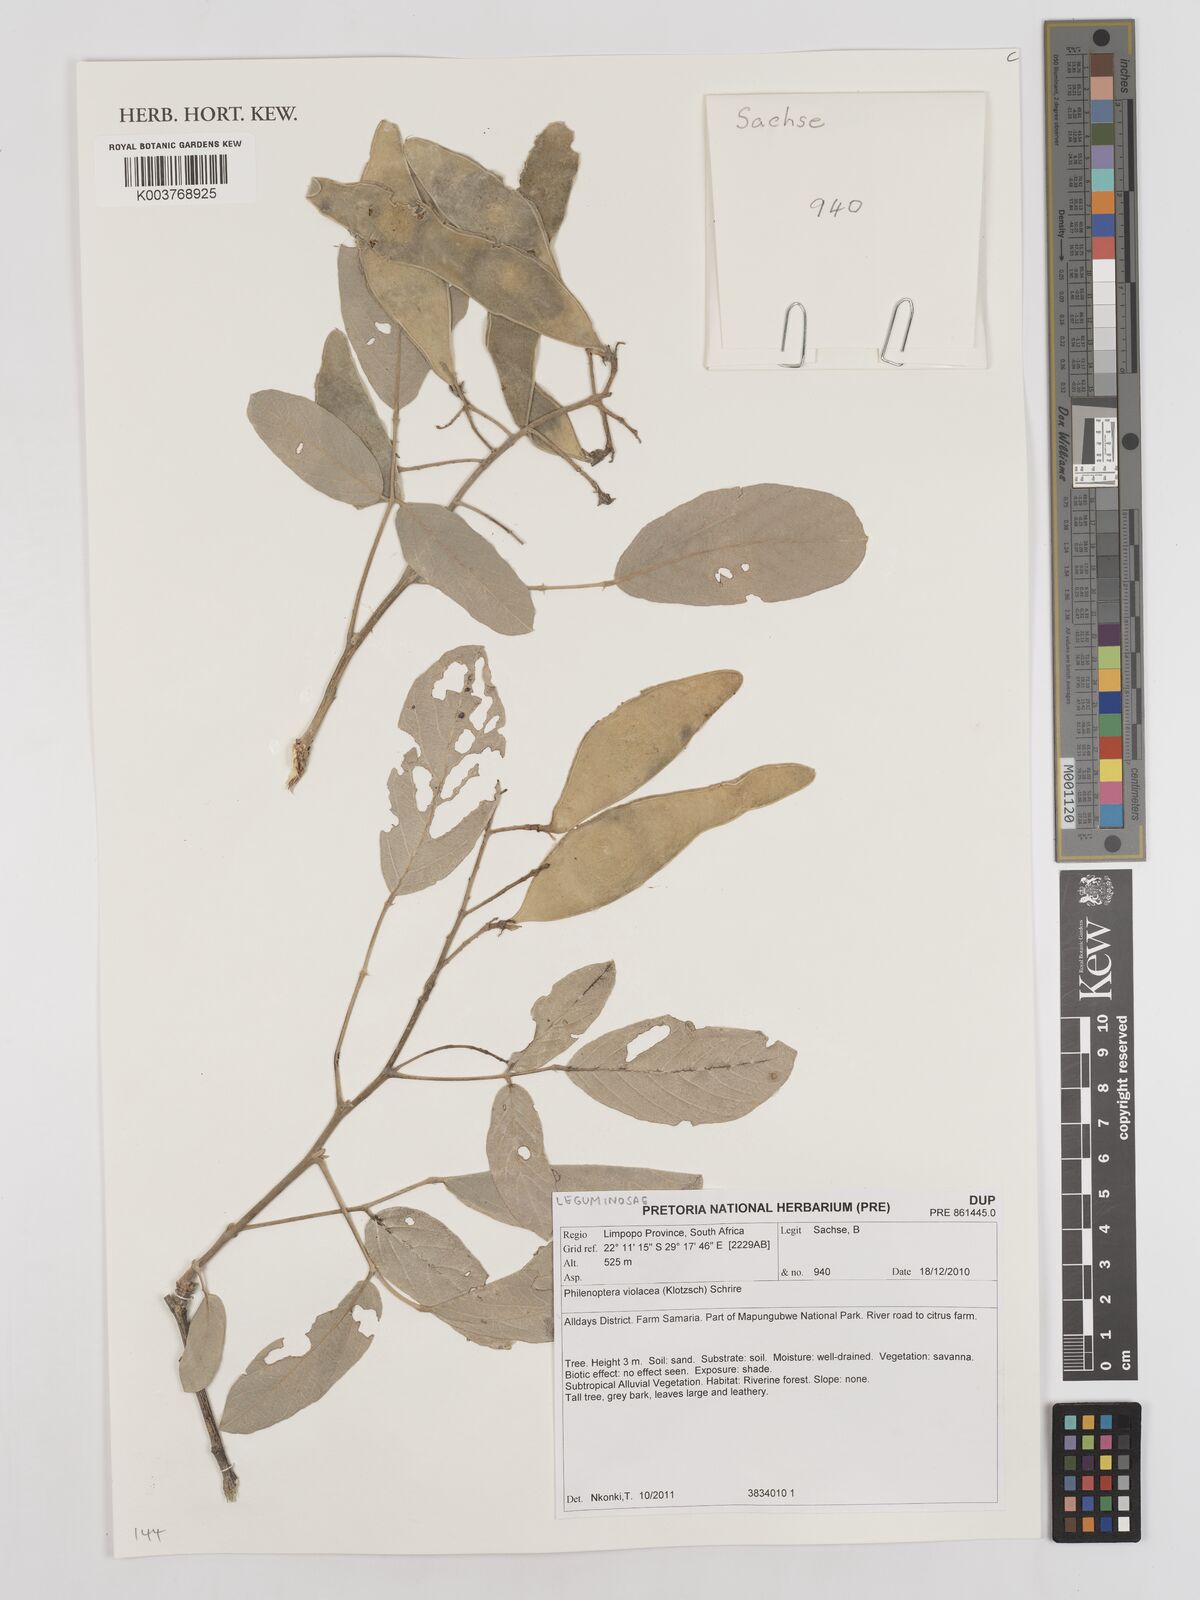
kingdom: Plantae
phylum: Tracheophyta
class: Magnoliopsida
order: Fabales
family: Fabaceae
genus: Philenoptera
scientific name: Philenoptera violacea
